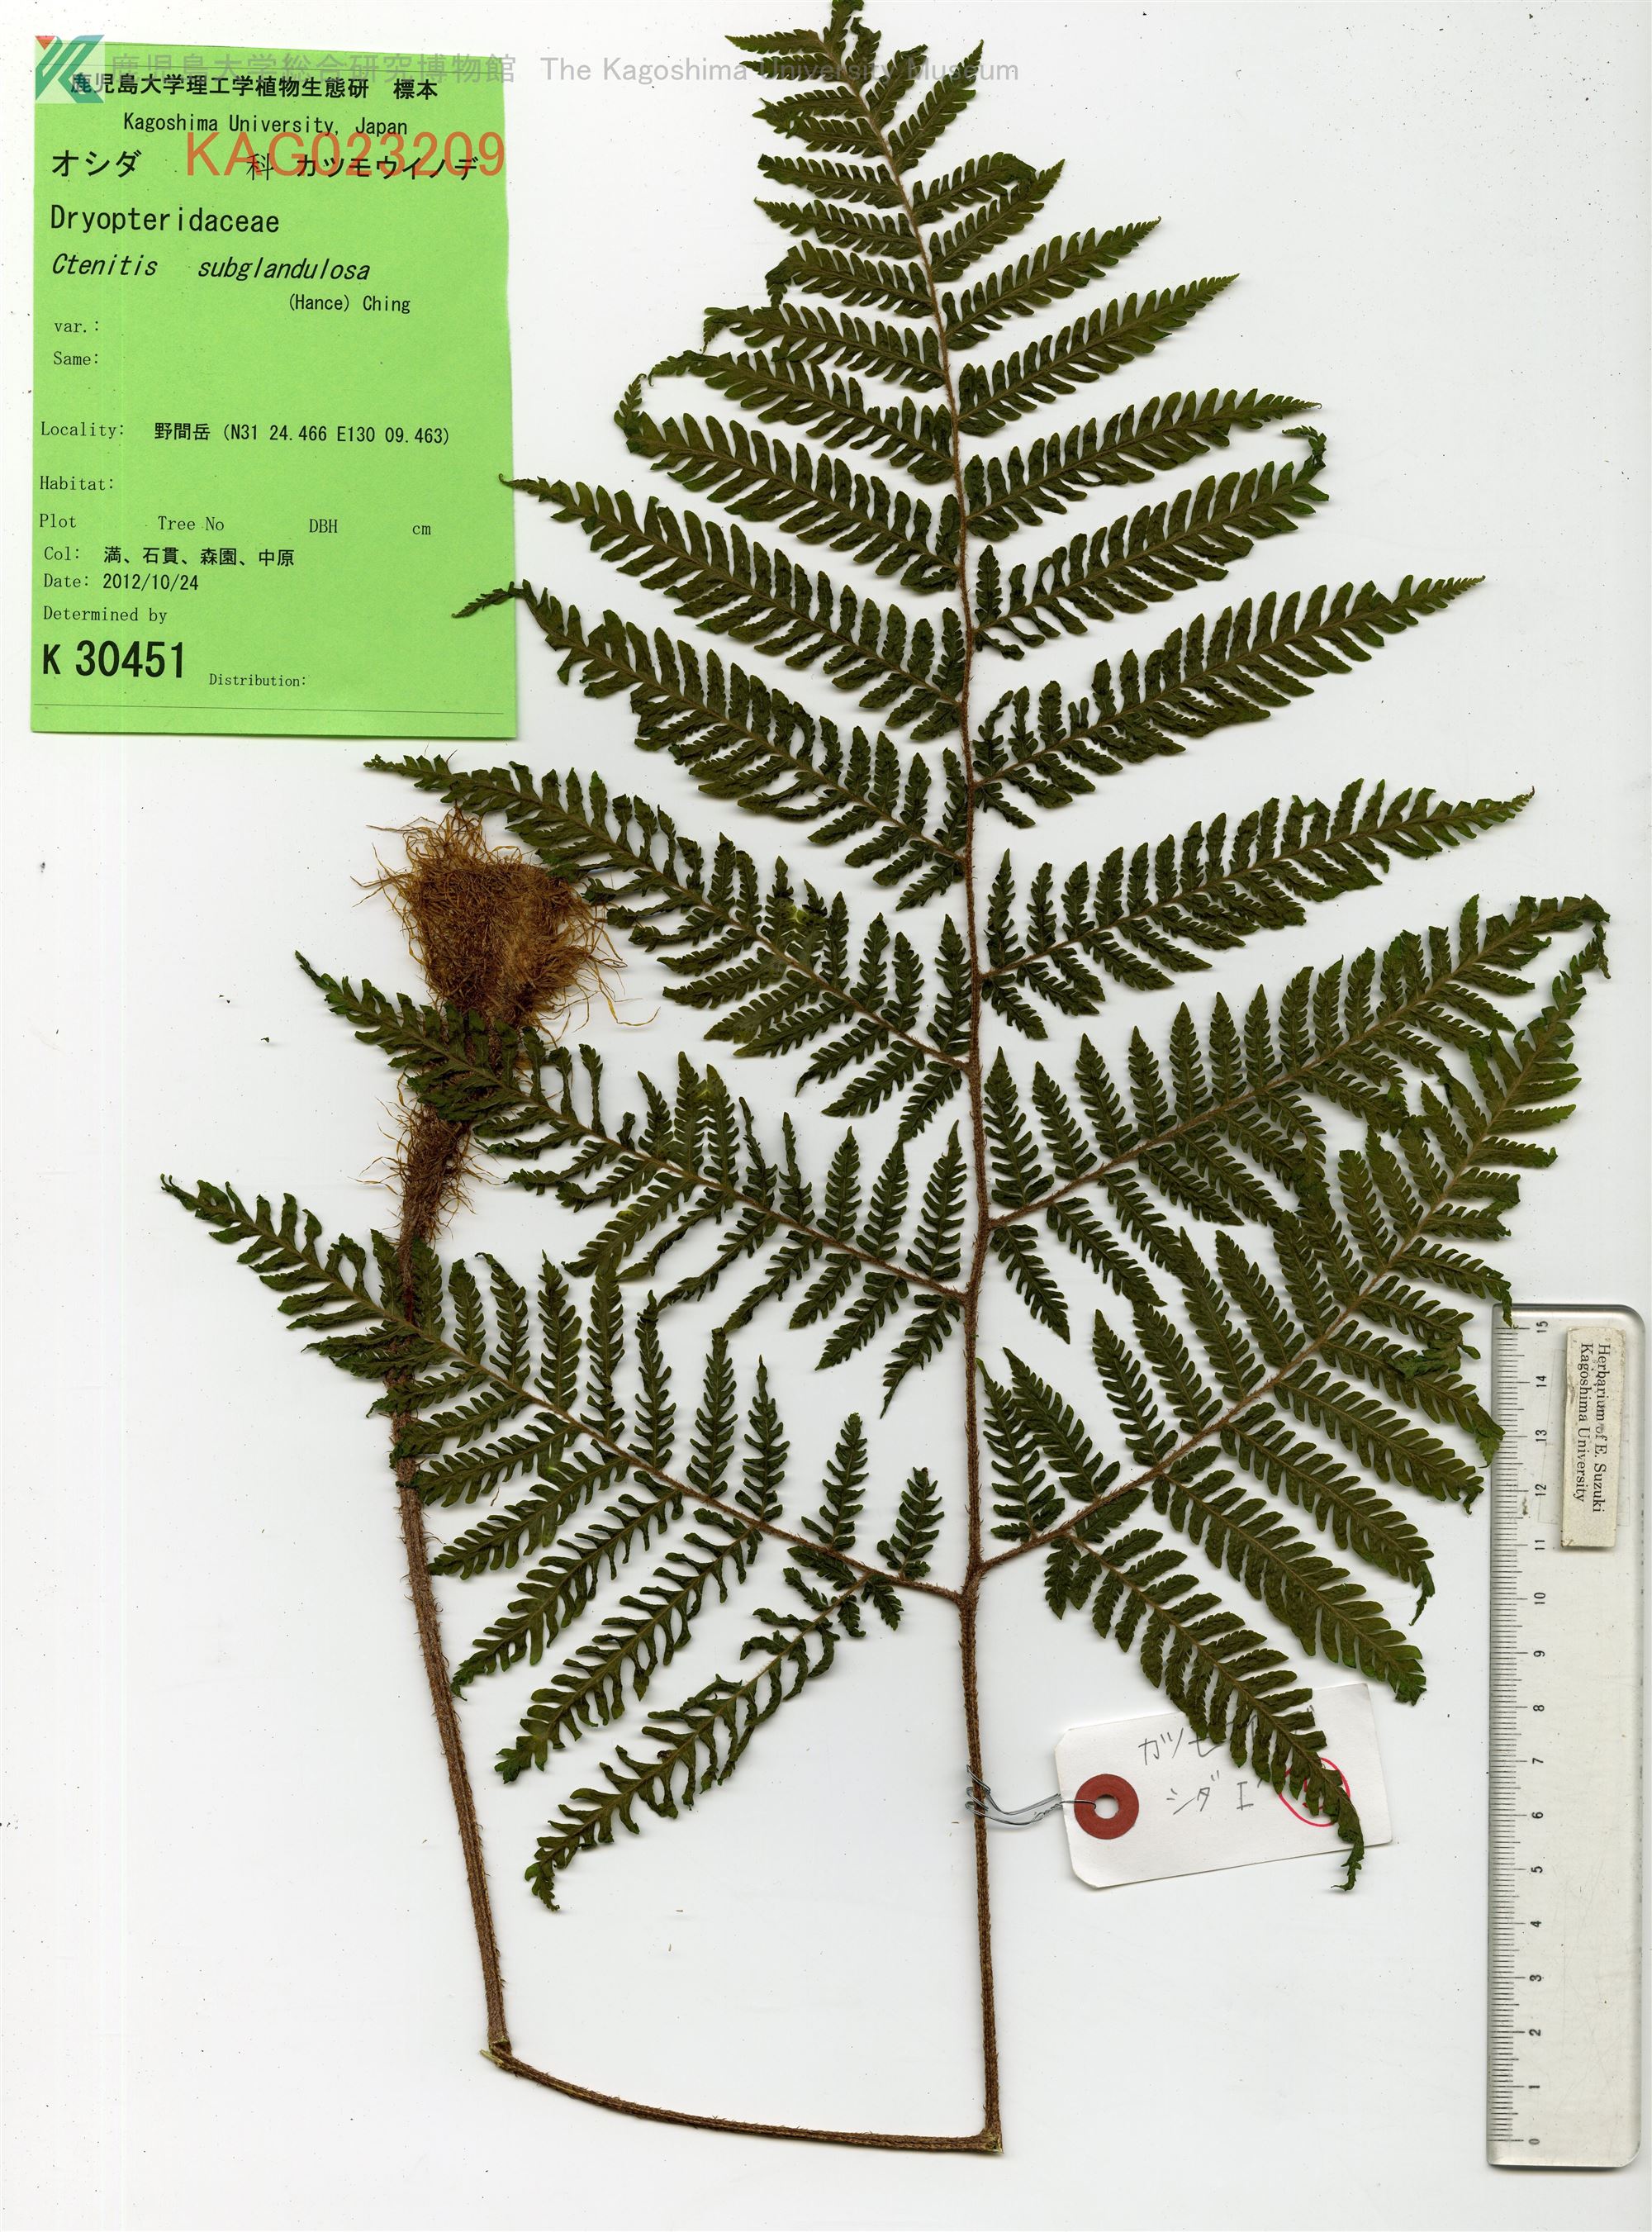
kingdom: Plantae
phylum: Tracheophyta
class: Polypodiopsida
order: Polypodiales
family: Dryopteridaceae
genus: Ctenitis
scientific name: Ctenitis subglandulosa
